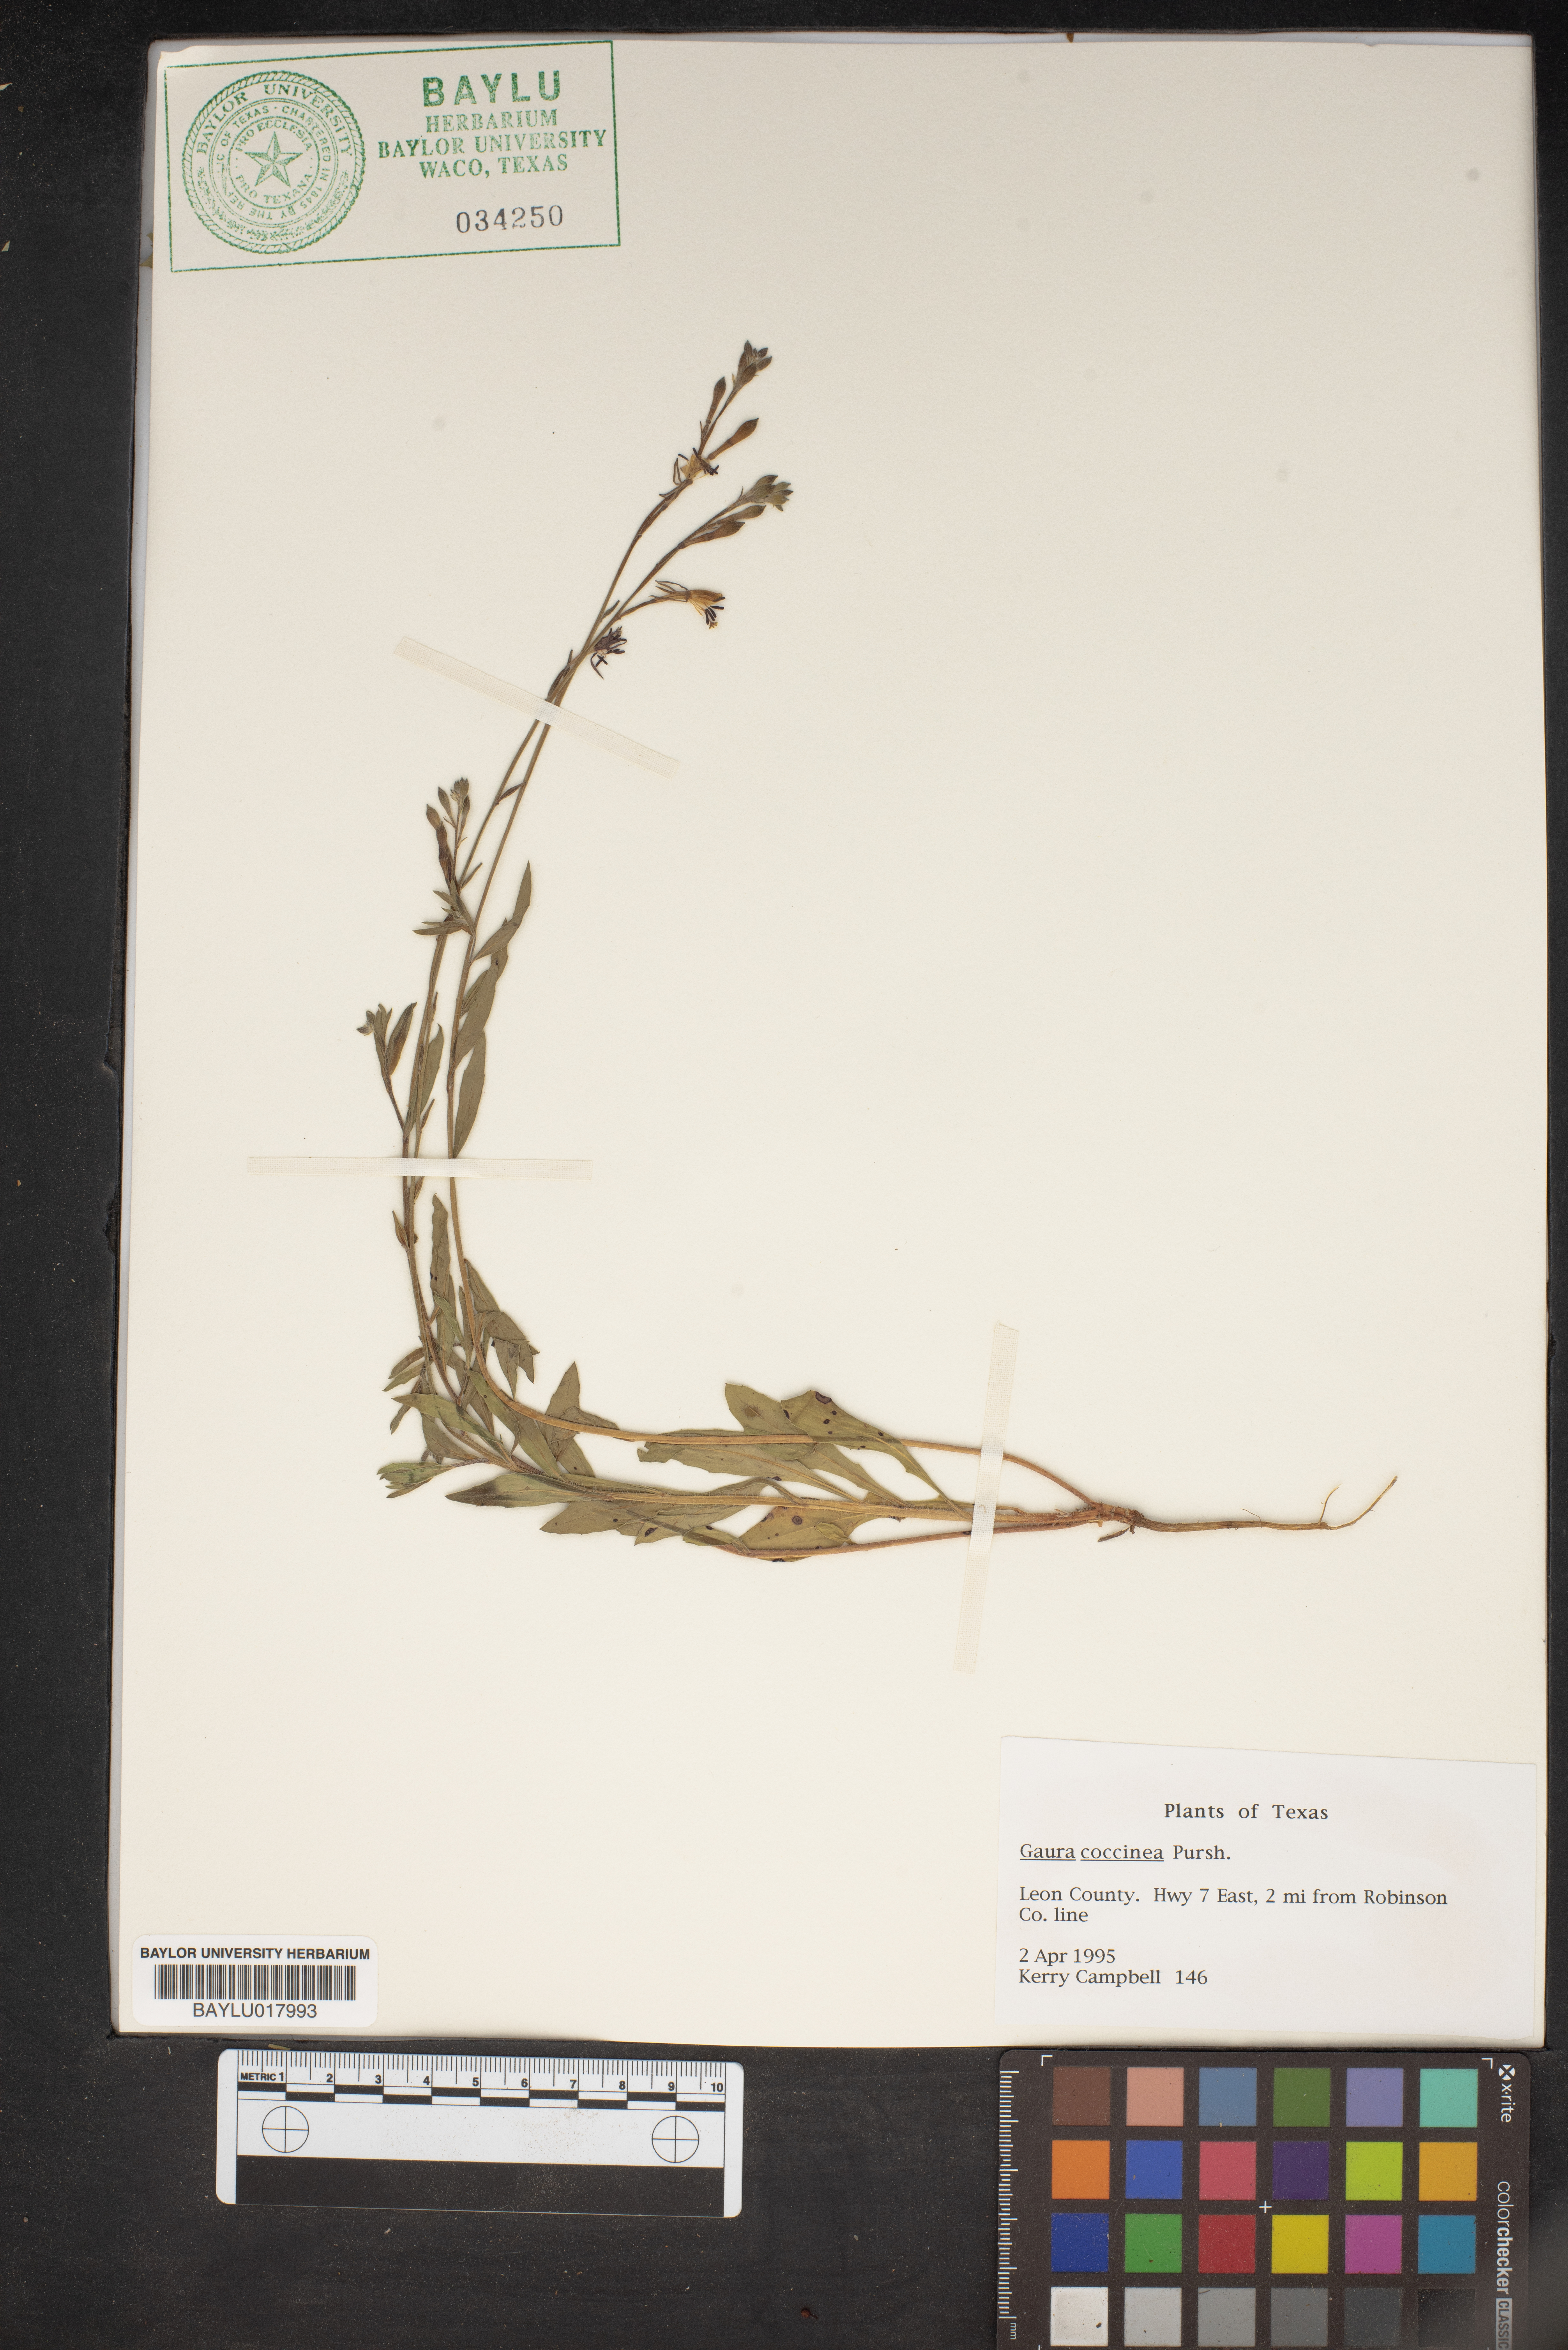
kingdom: Plantae
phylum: Tracheophyta
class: Magnoliopsida
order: Myrtales
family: Onagraceae
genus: Oenothera
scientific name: Oenothera suffrutescens
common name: Scarlet beeblossom
